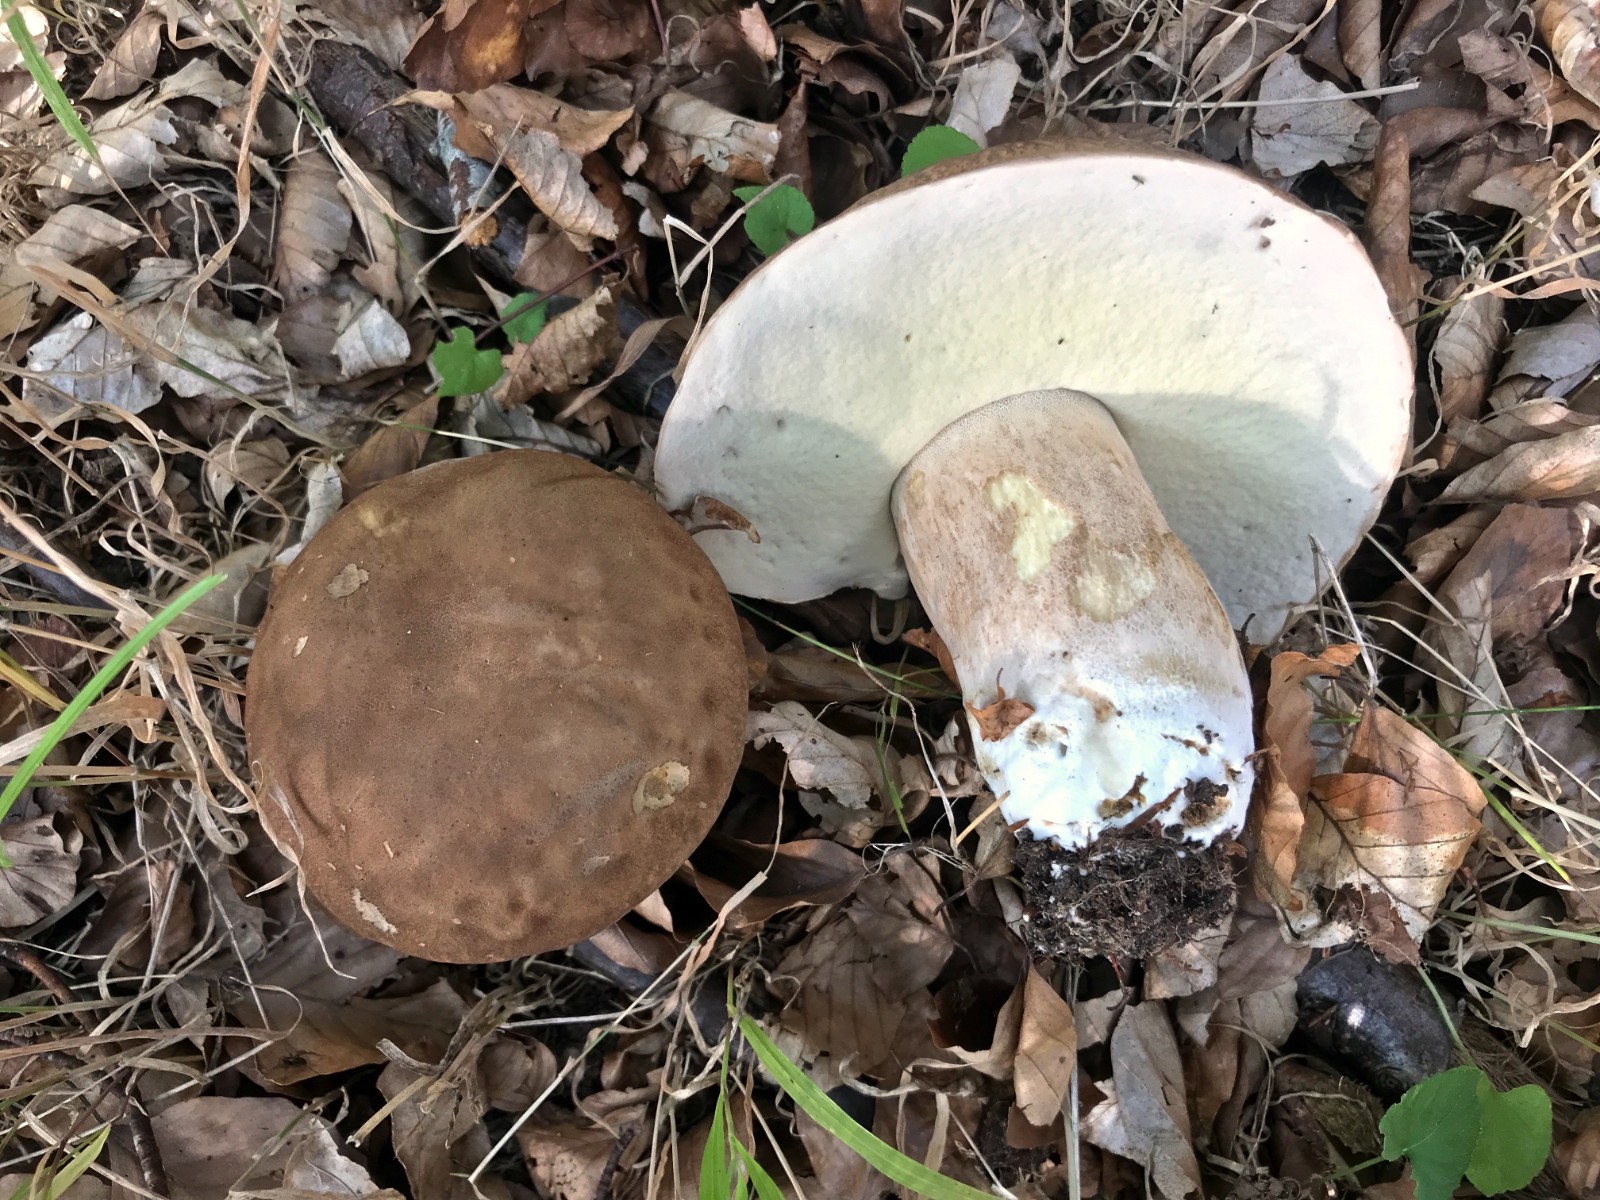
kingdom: Fungi
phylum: Basidiomycota
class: Agaricomycetes
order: Boletales
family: Boletaceae
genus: Boletus
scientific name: Boletus edulis
